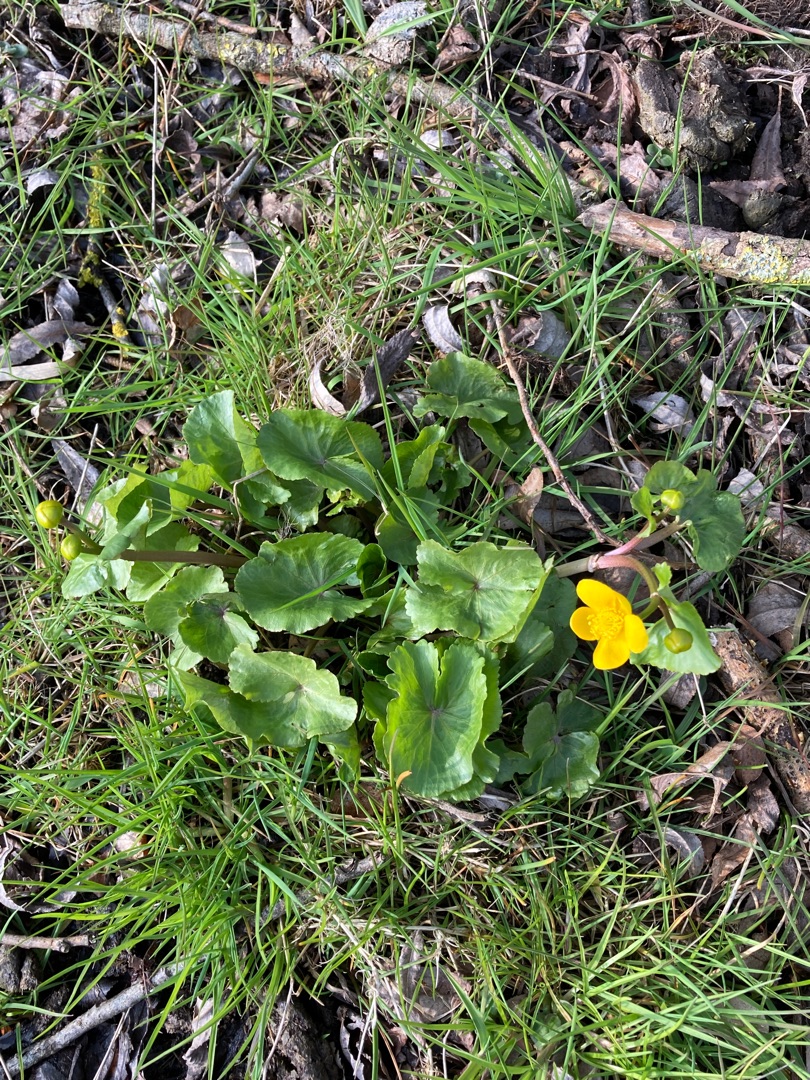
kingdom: Plantae
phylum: Tracheophyta
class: Magnoliopsida
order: Ranunculales
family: Ranunculaceae
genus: Caltha
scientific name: Caltha palustris
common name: Eng-kabbeleje
